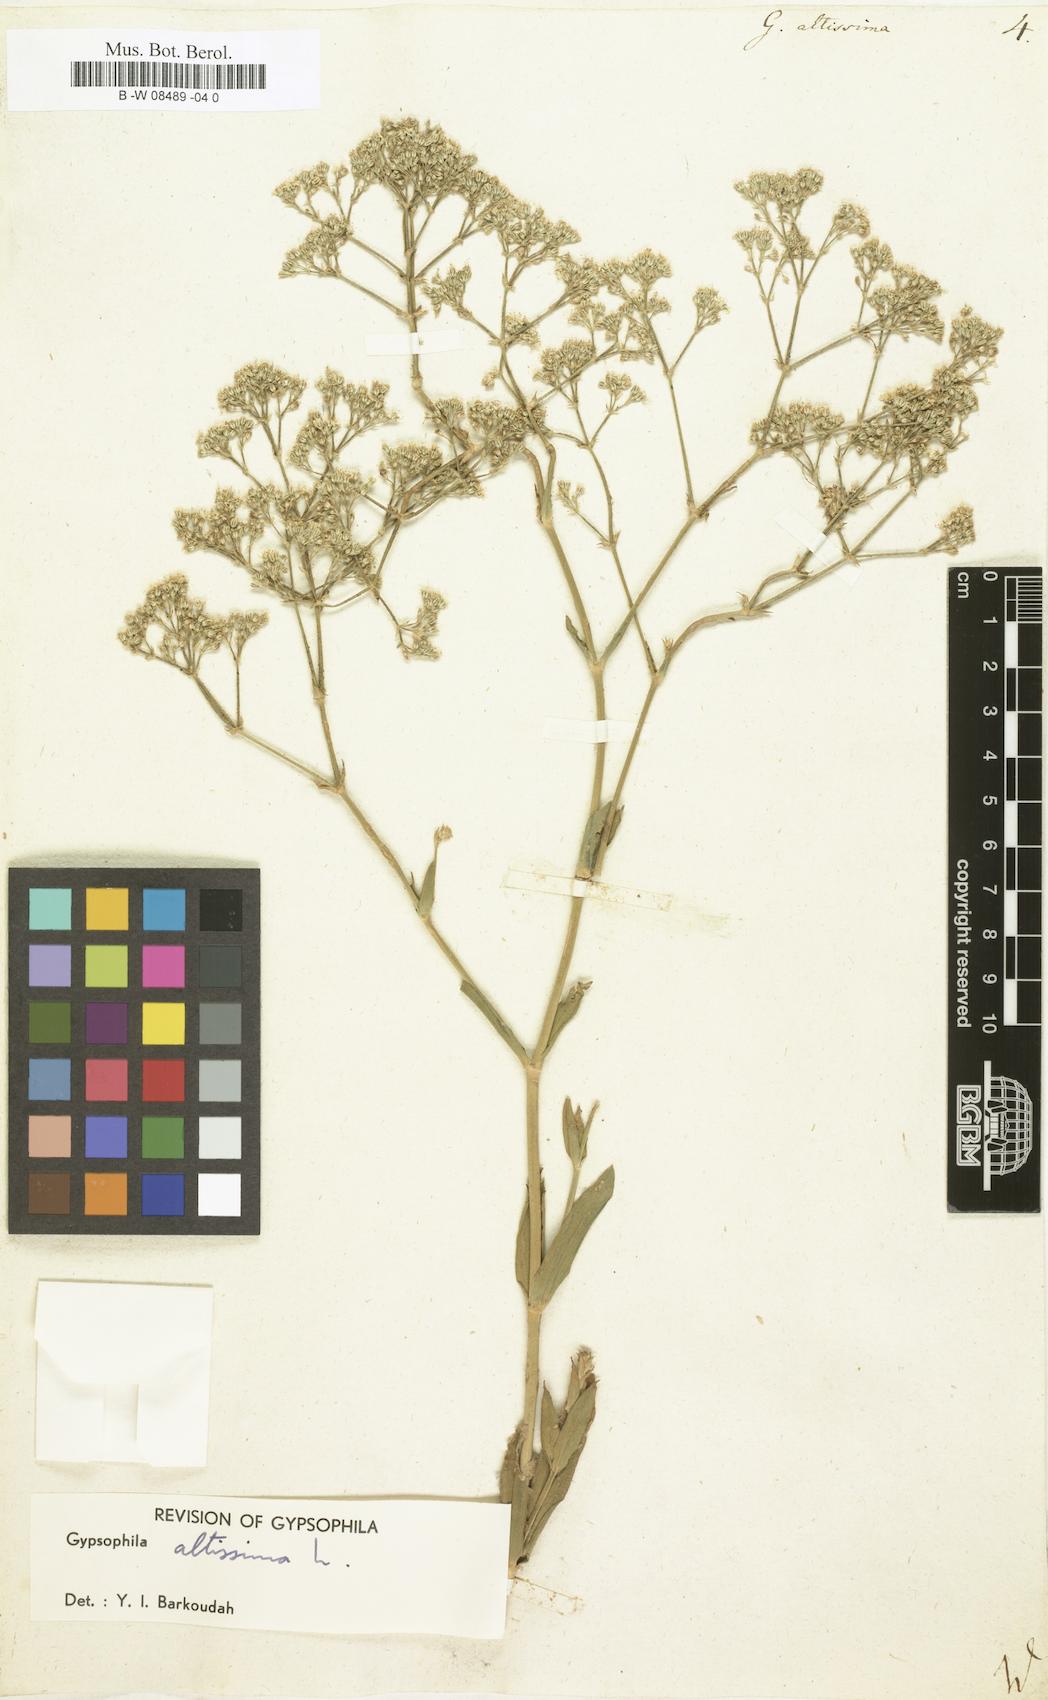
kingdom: Plantae
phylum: Tracheophyta
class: Magnoliopsida
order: Caryophyllales
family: Caryophyllaceae
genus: Gypsophila
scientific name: Gypsophila altissima
